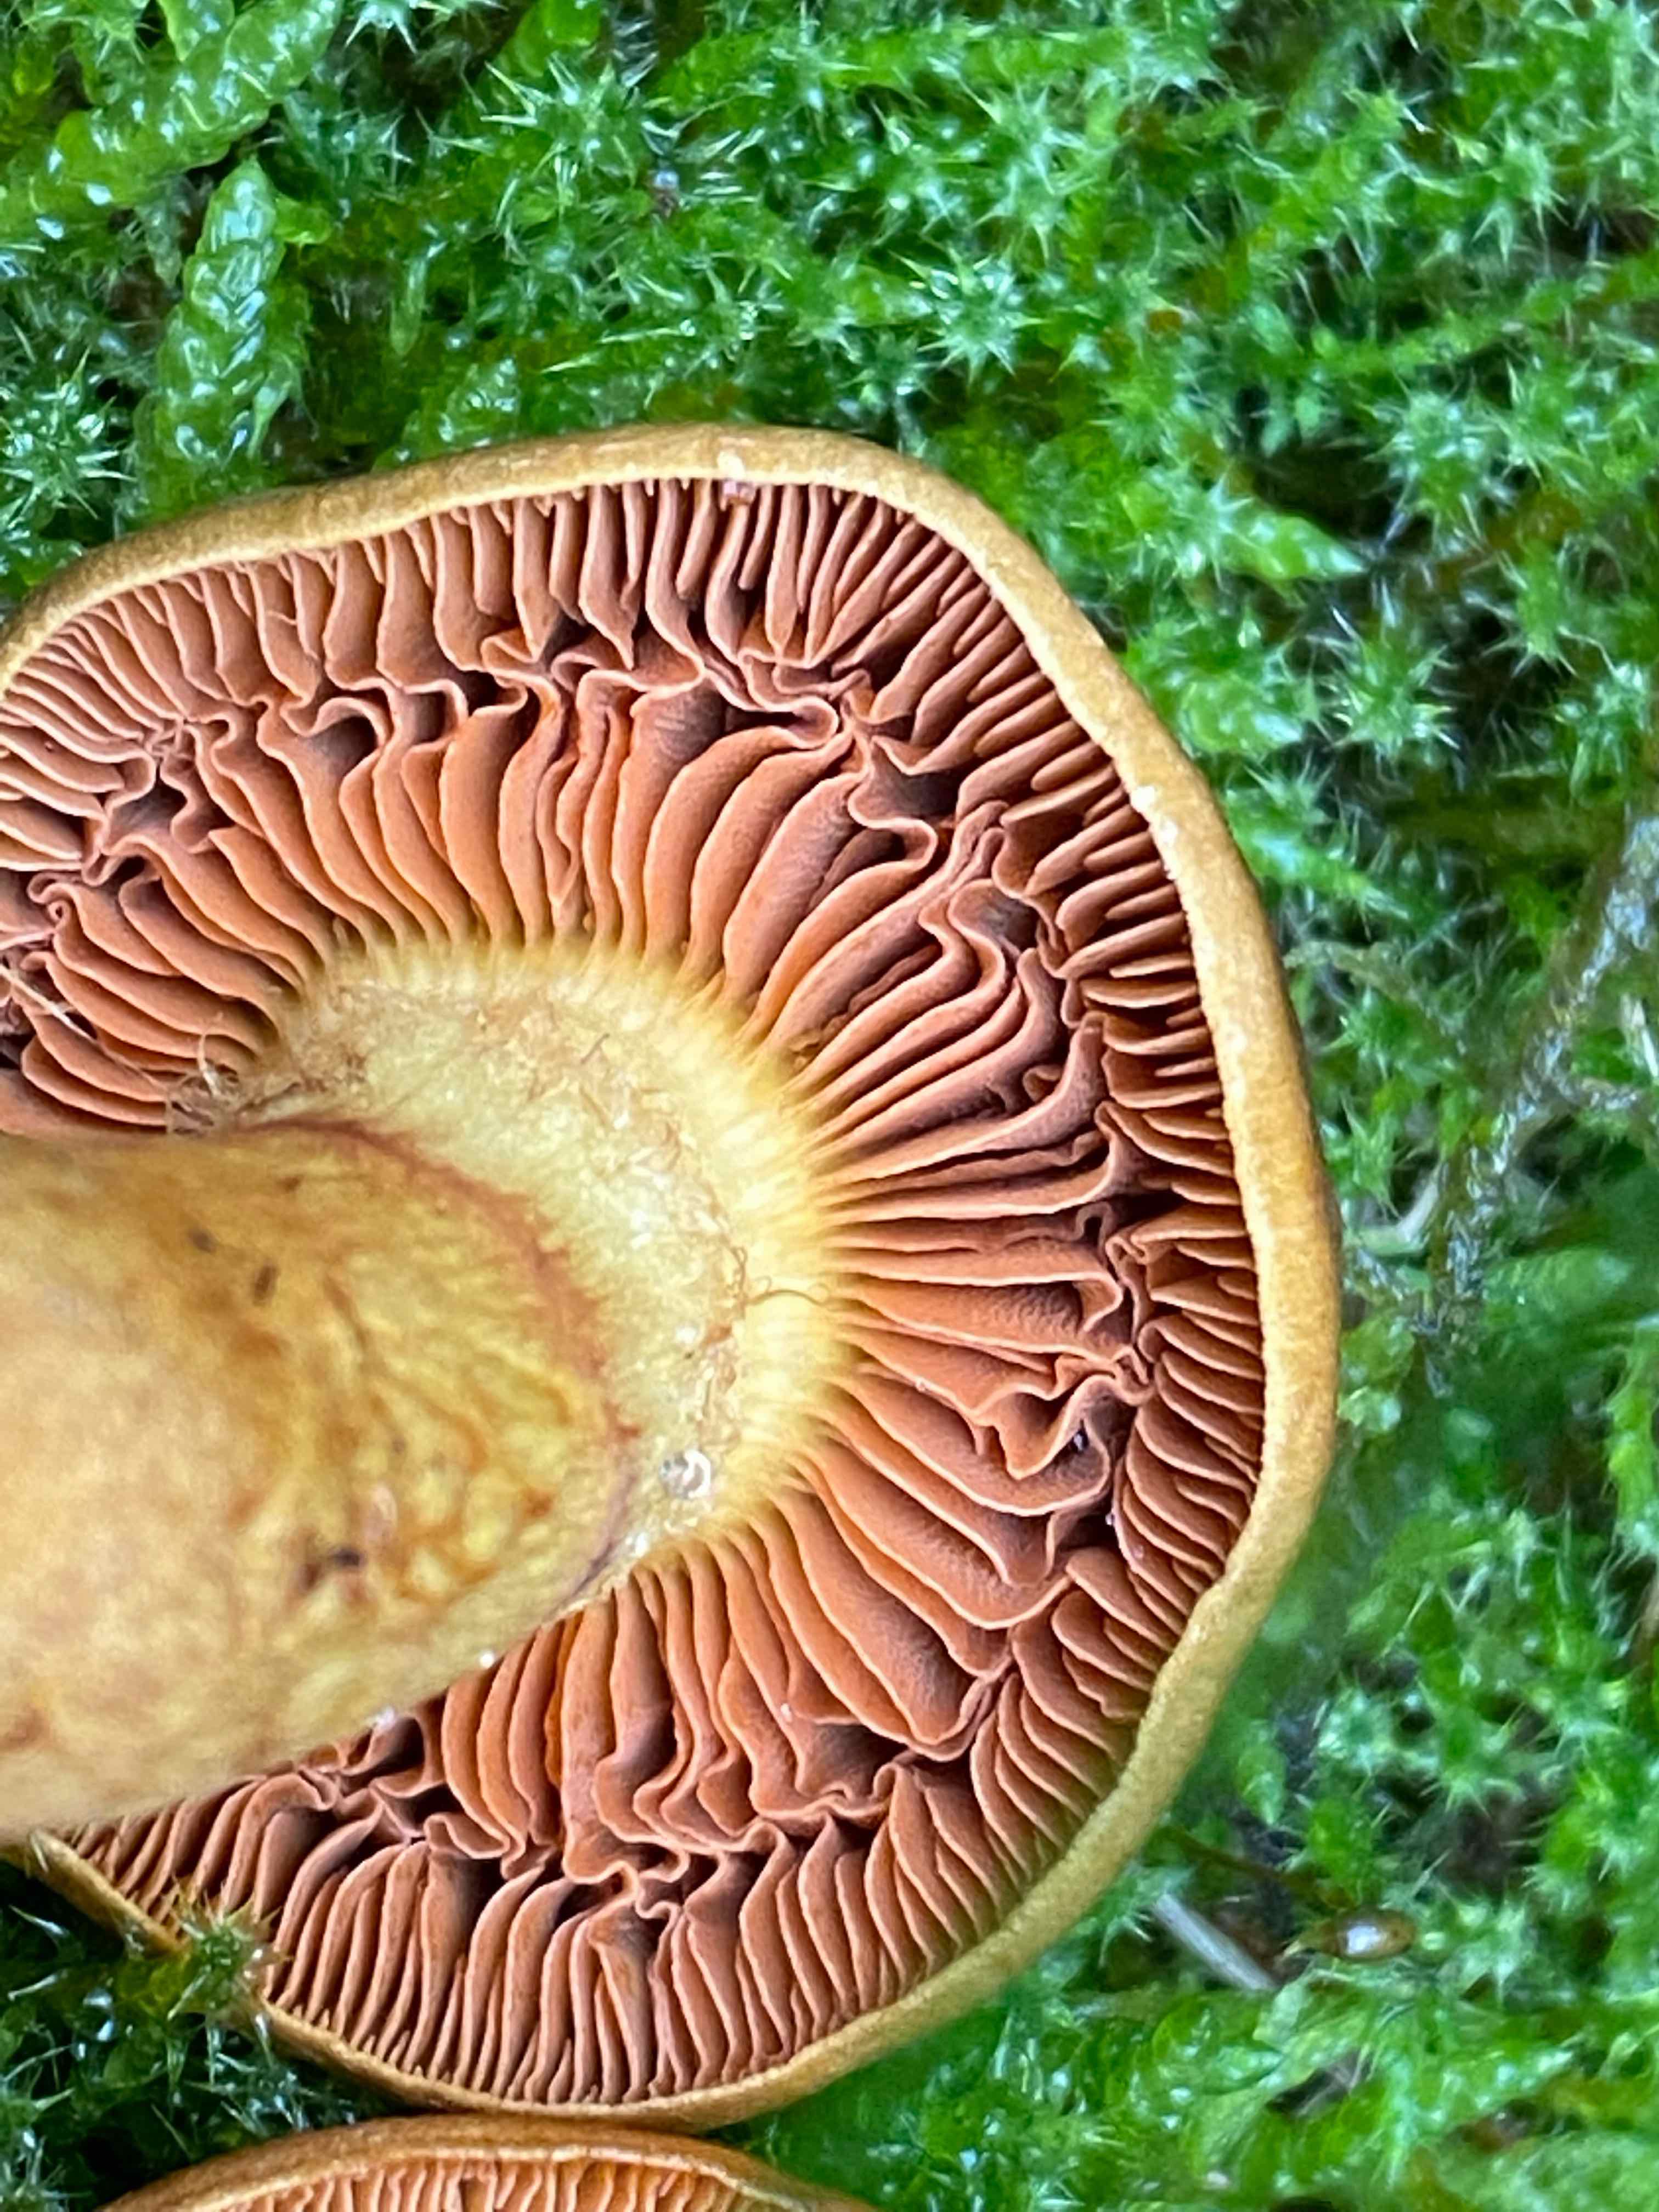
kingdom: Fungi
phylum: Basidiomycota
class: Agaricomycetes
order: Agaricales
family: Cortinariaceae
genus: Cortinarius
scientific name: Cortinarius
